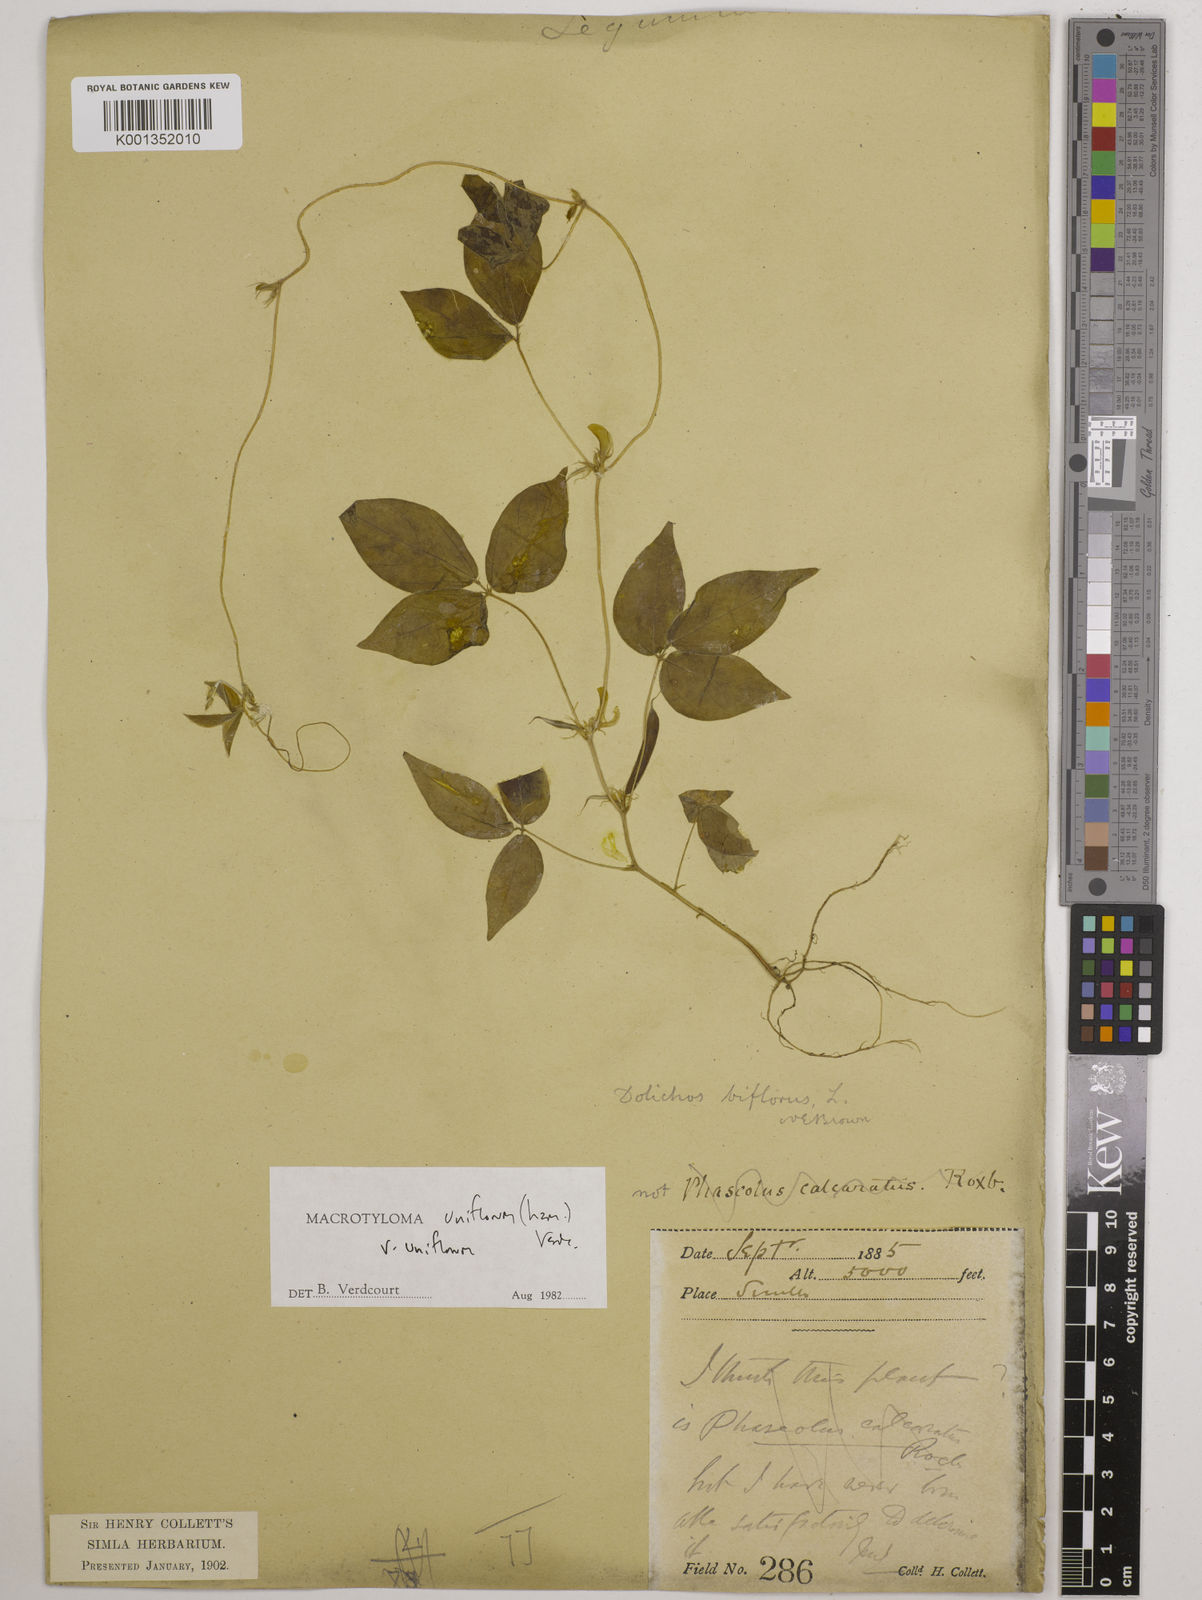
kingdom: Plantae
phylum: Tracheophyta
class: Magnoliopsida
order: Fabales
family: Fabaceae
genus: Macrotyloma
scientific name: Macrotyloma uniflorum
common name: Horse gram
